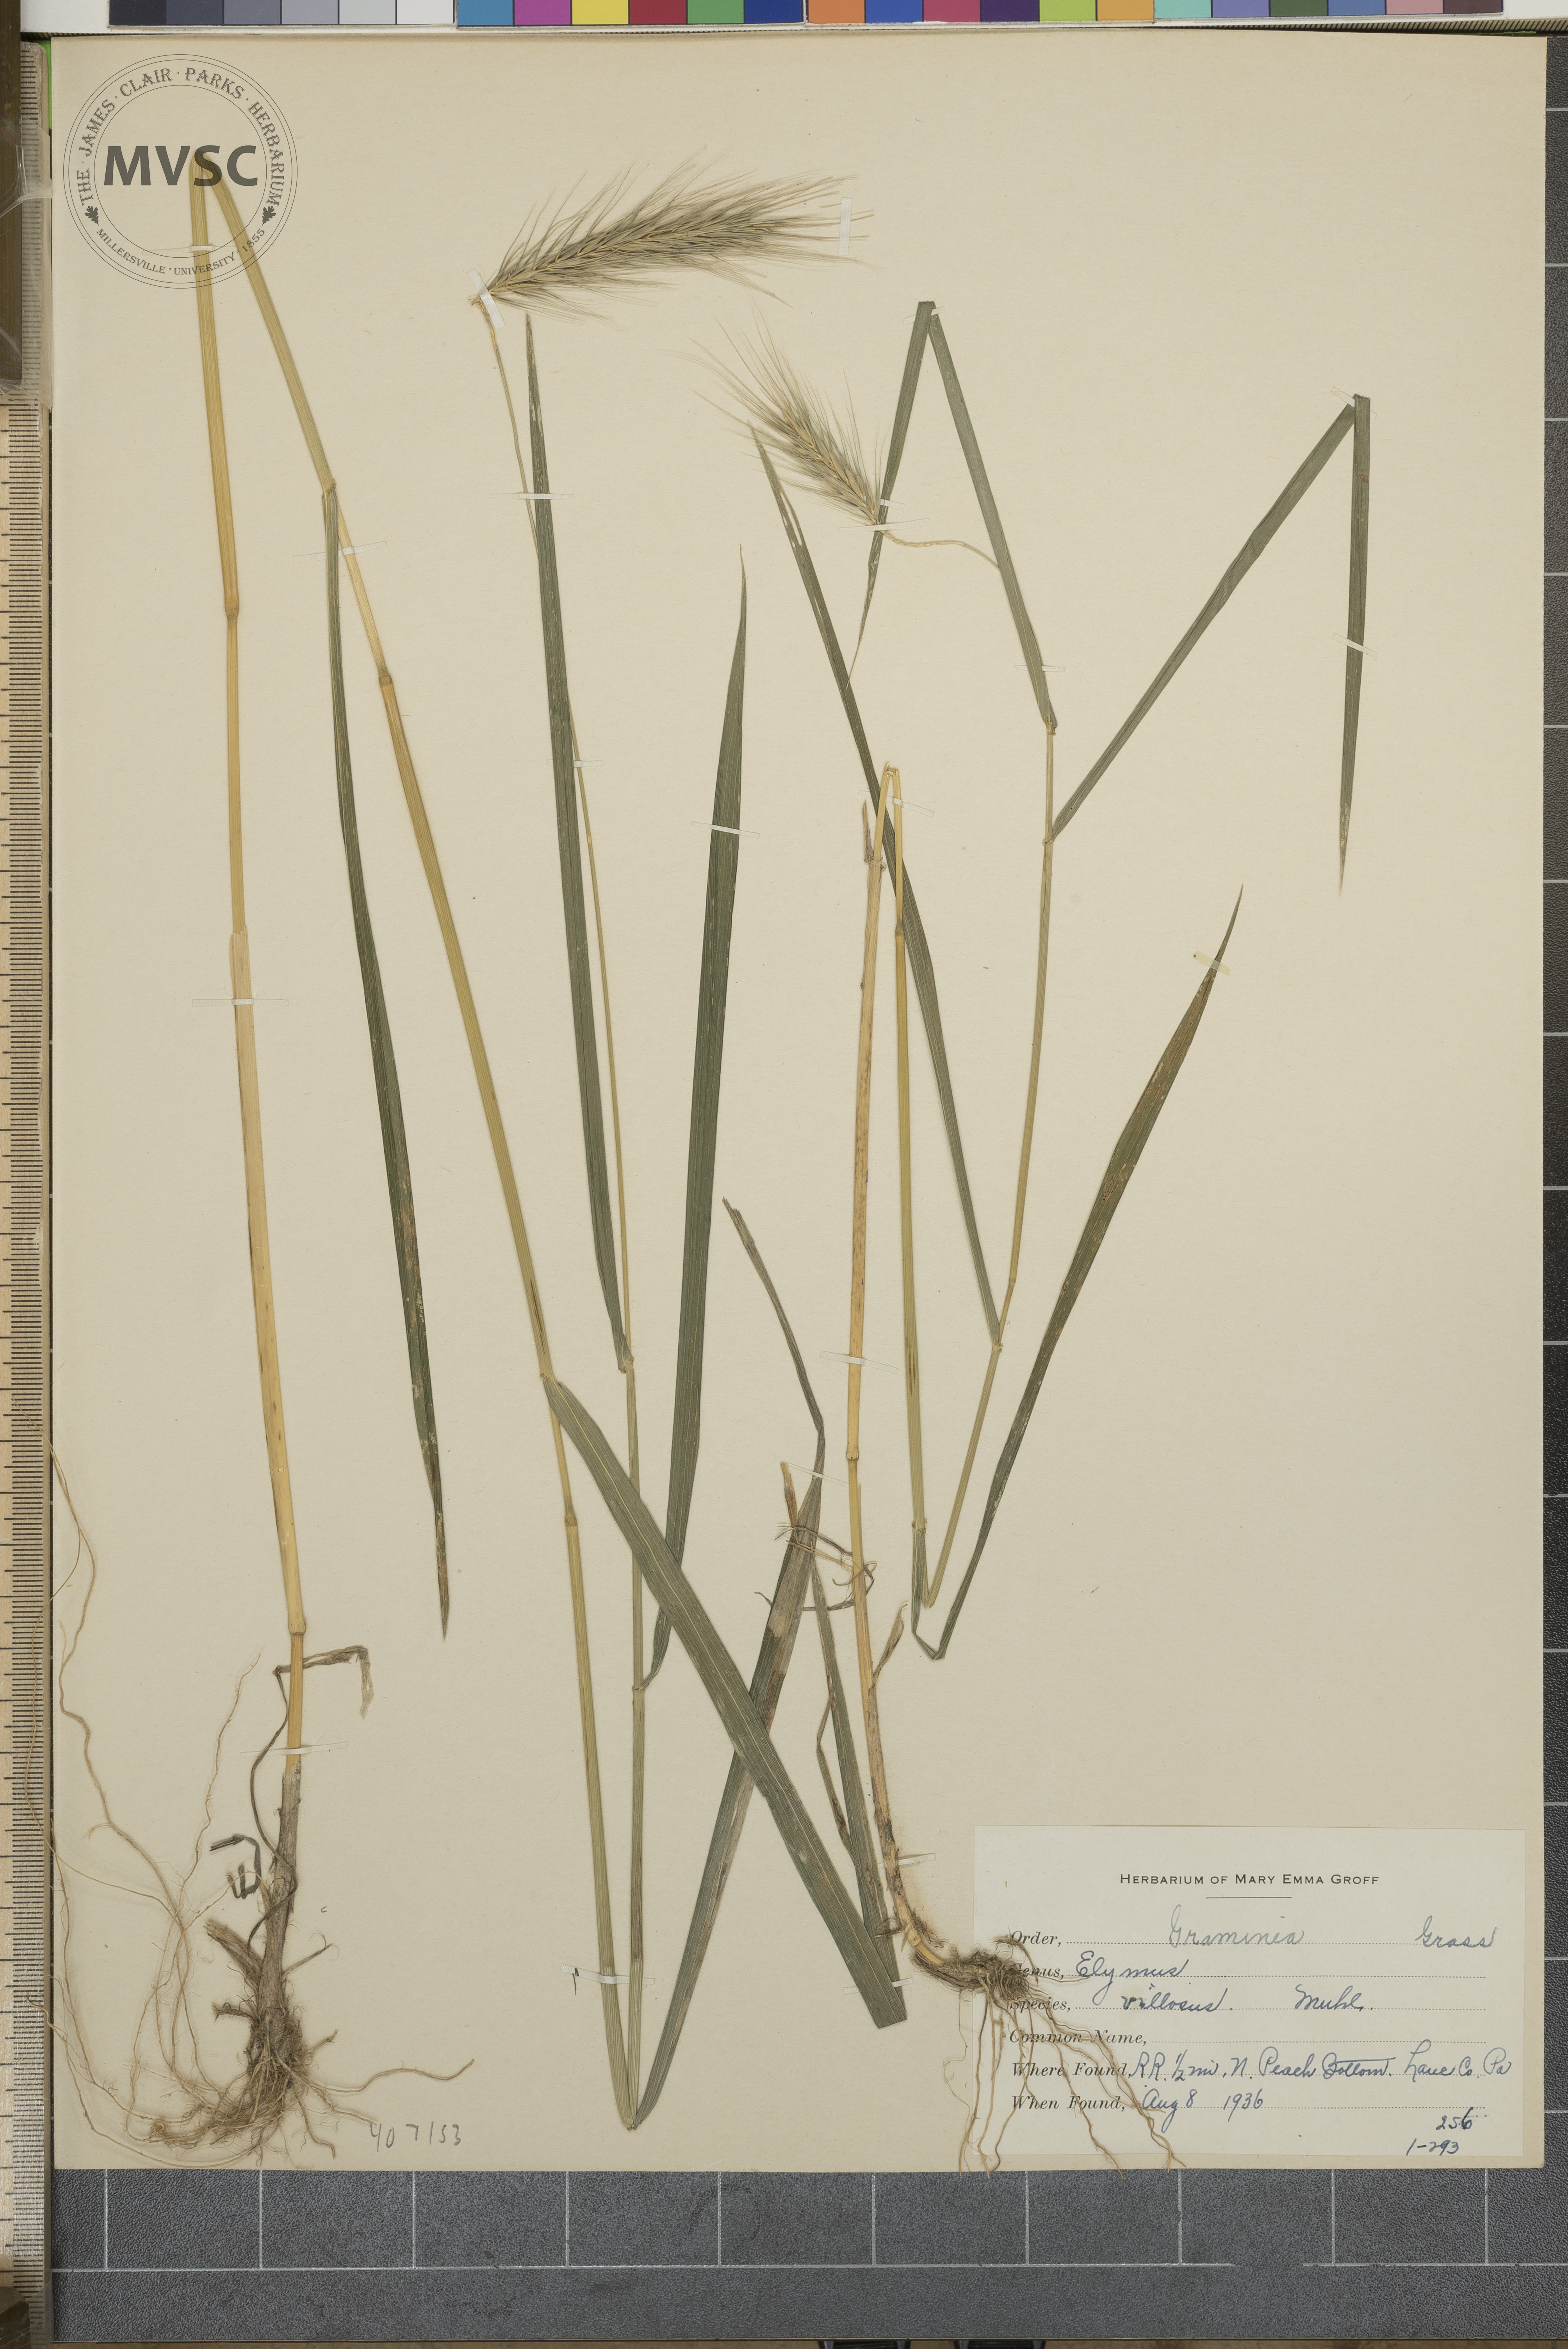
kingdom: Plantae
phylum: Tracheophyta
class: Liliopsida
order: Poales
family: Poaceae
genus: Elymus
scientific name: Elymus villosus
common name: Downy wild rye
